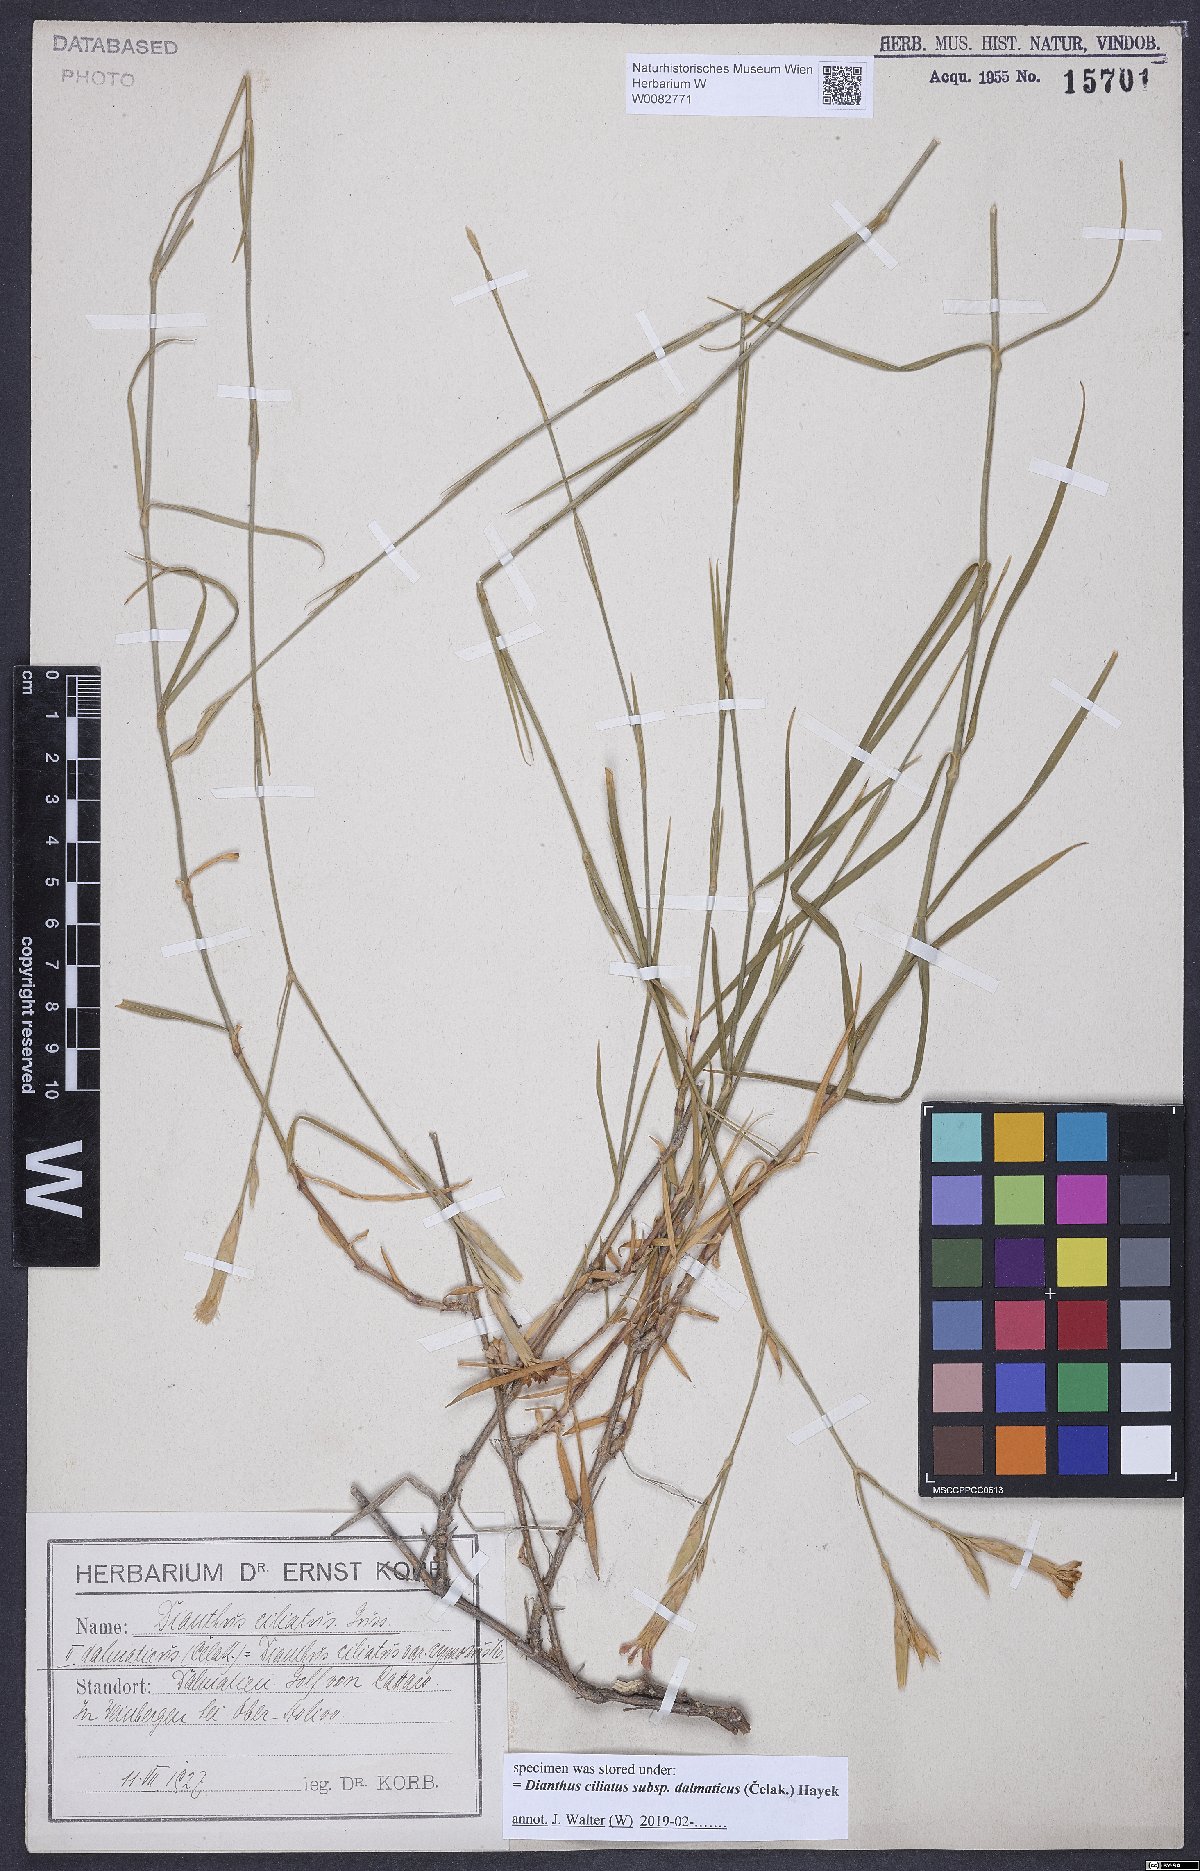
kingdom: Plantae
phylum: Tracheophyta
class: Magnoliopsida
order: Caryophyllales
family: Caryophyllaceae
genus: Dianthus
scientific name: Dianthus ciliatus
